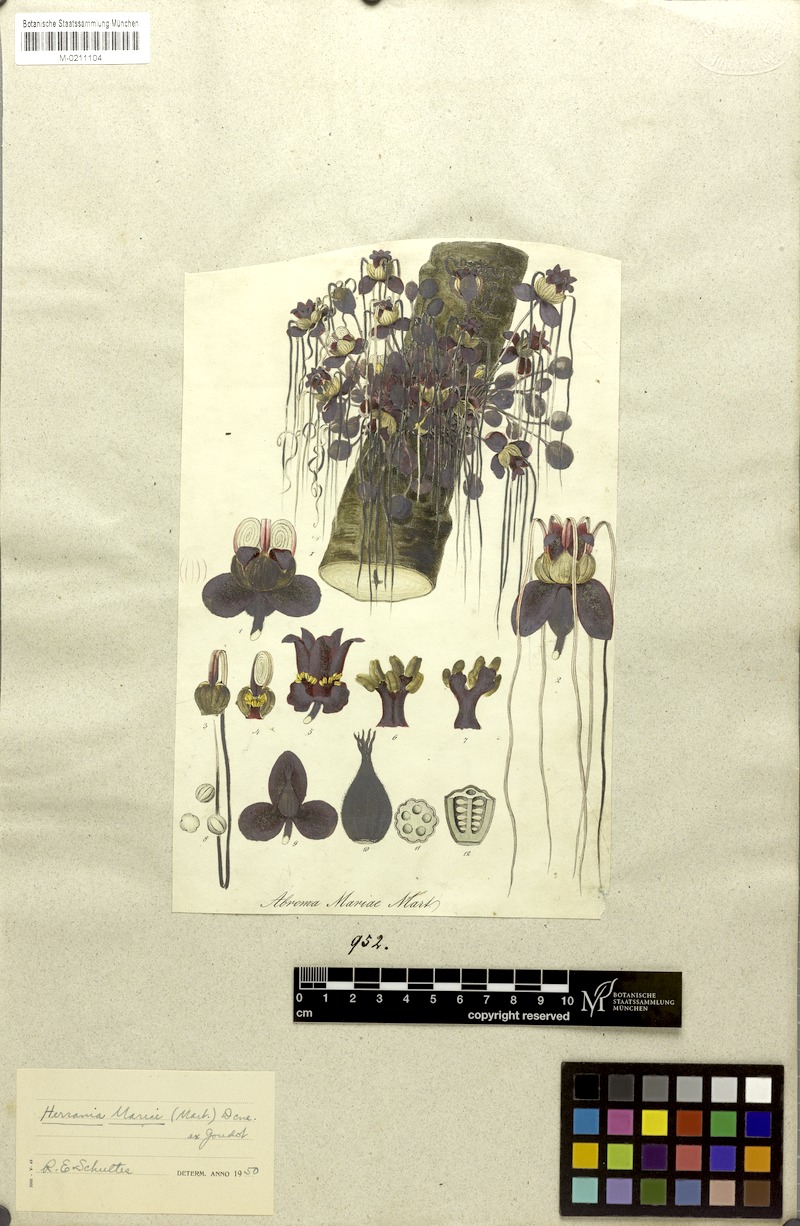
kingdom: Plantae
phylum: Tracheophyta
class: Magnoliopsida
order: Malvales
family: Malvaceae
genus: Abroma
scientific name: Abroma augustum
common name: Devil's-cotton
